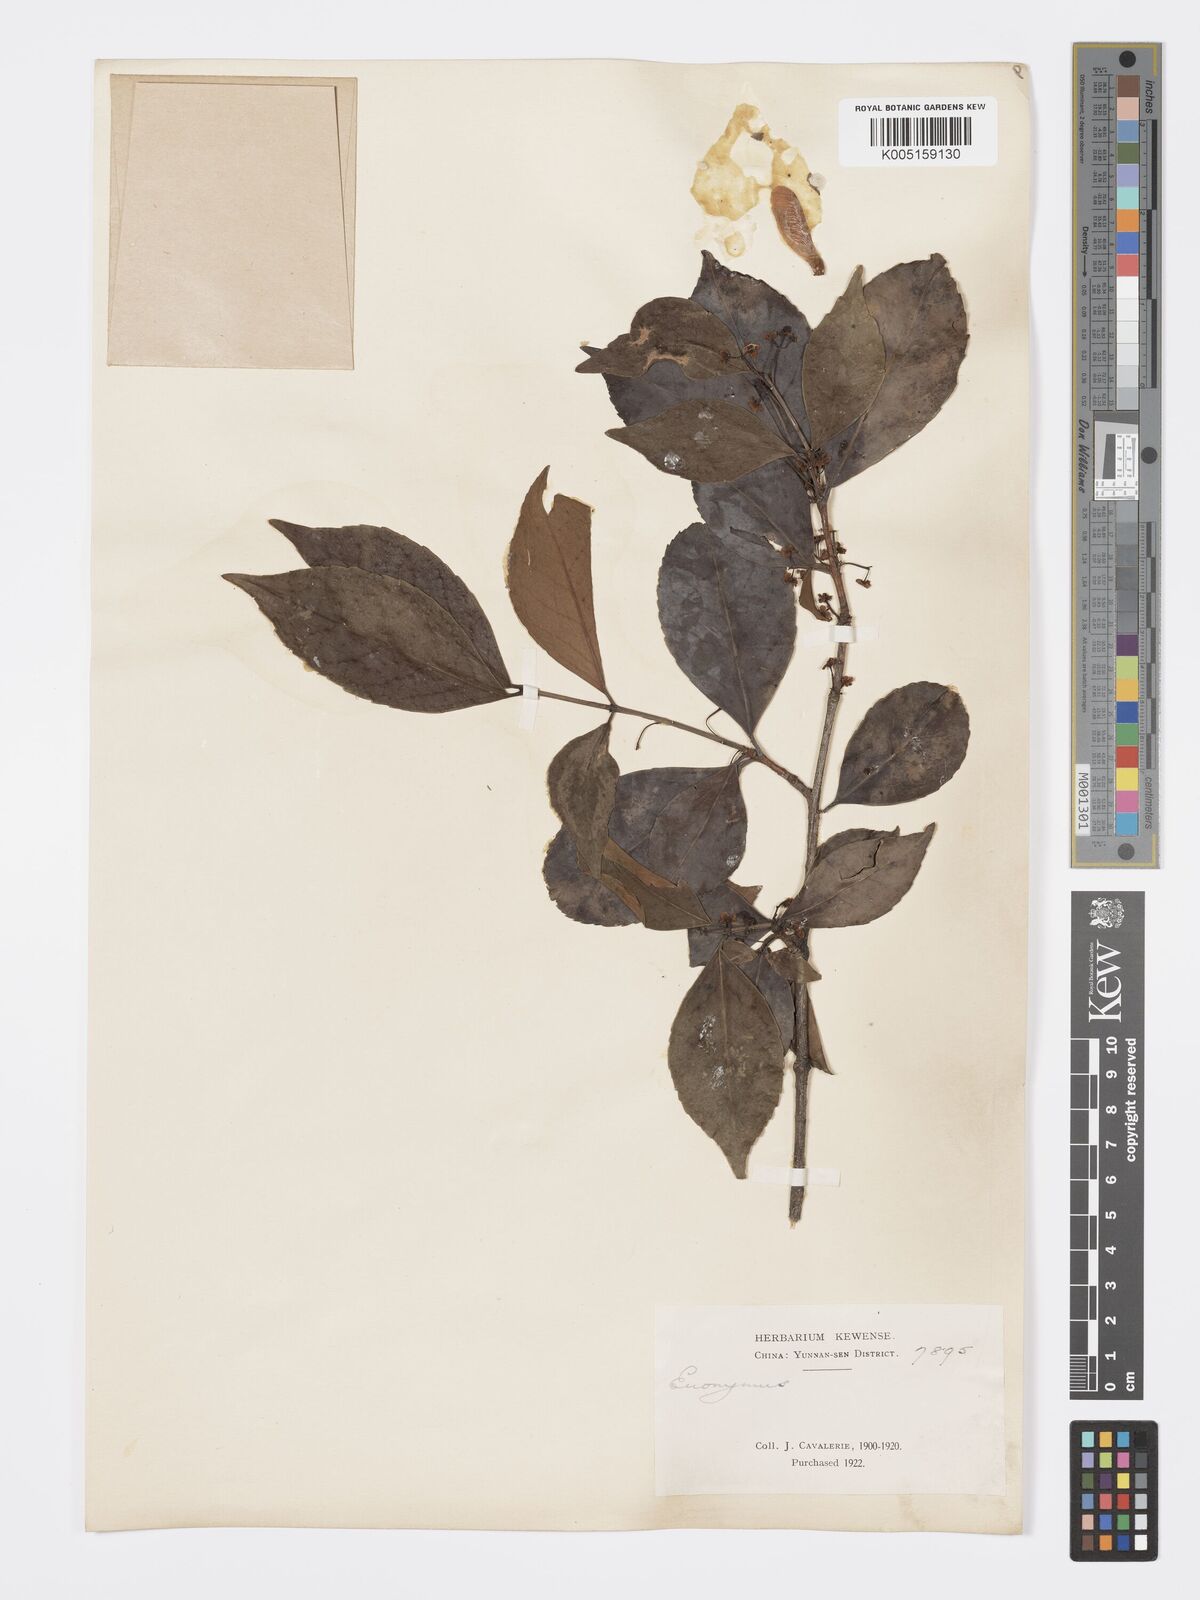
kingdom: Plantae
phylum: Tracheophyta
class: Magnoliopsida
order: Celastrales
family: Celastraceae
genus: Euonymus
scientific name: Euonymus dielsianus
